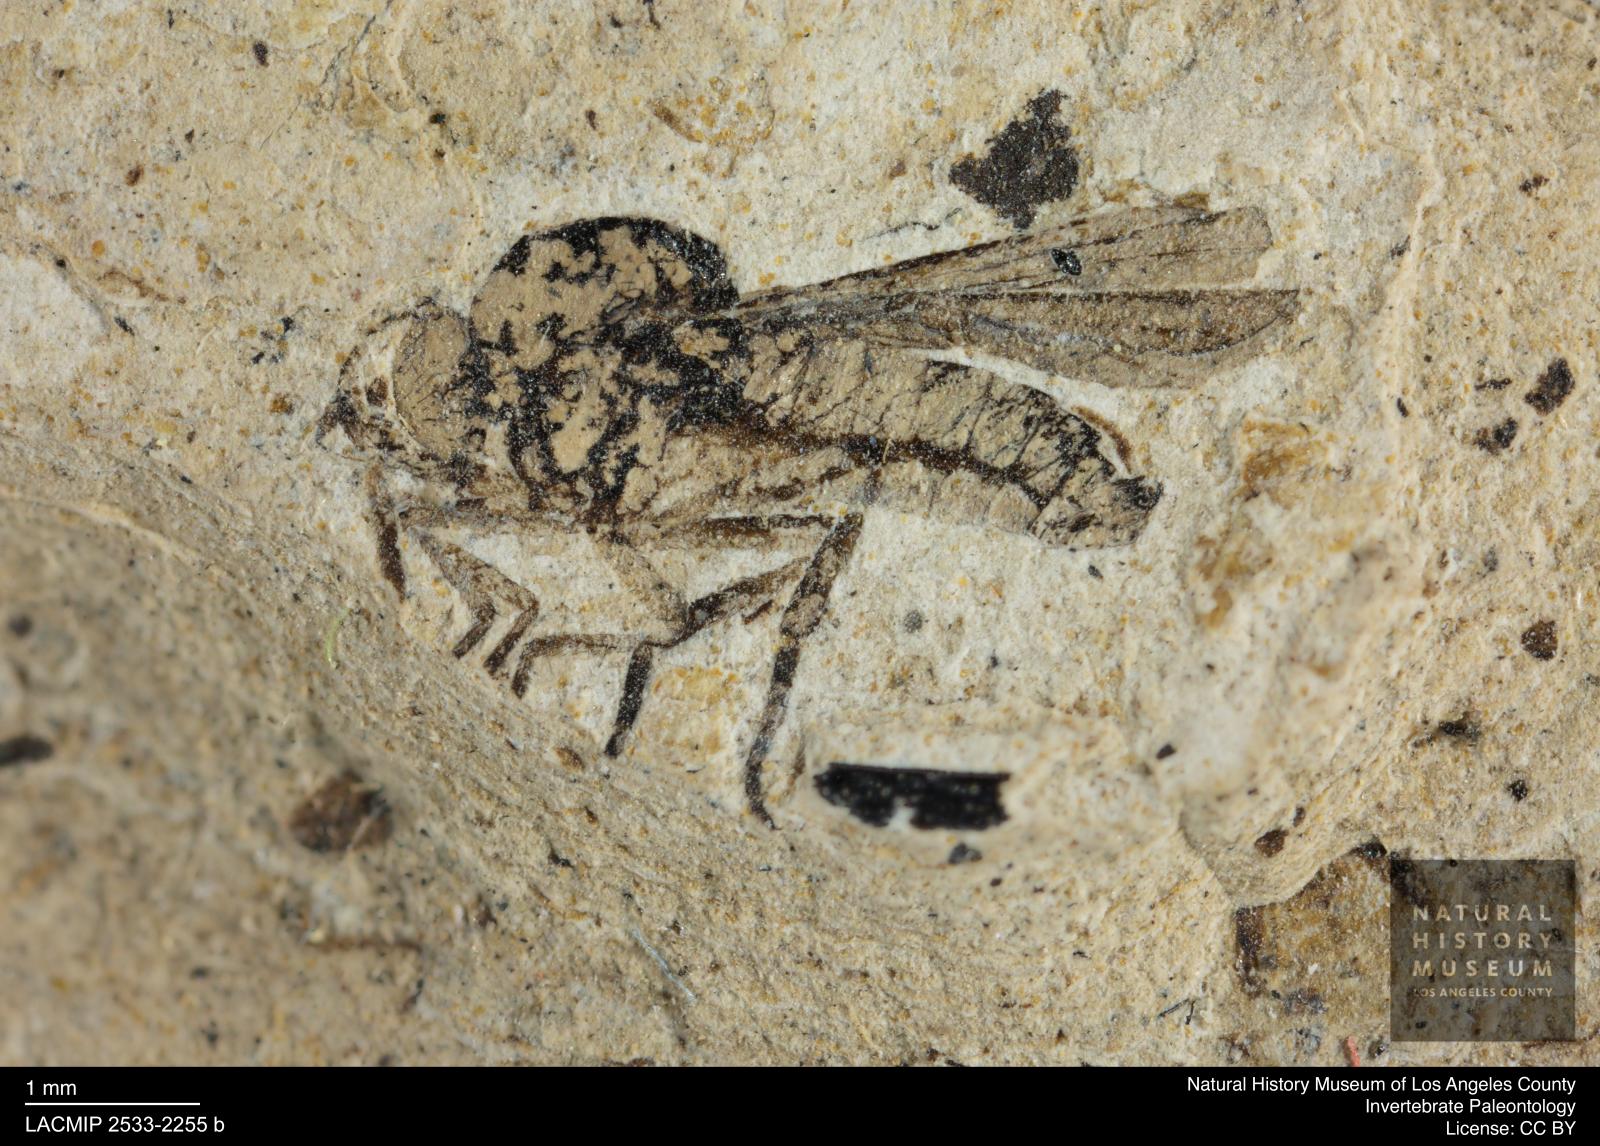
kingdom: Animalia
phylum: Arthropoda
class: Insecta
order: Diptera
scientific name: Diptera
